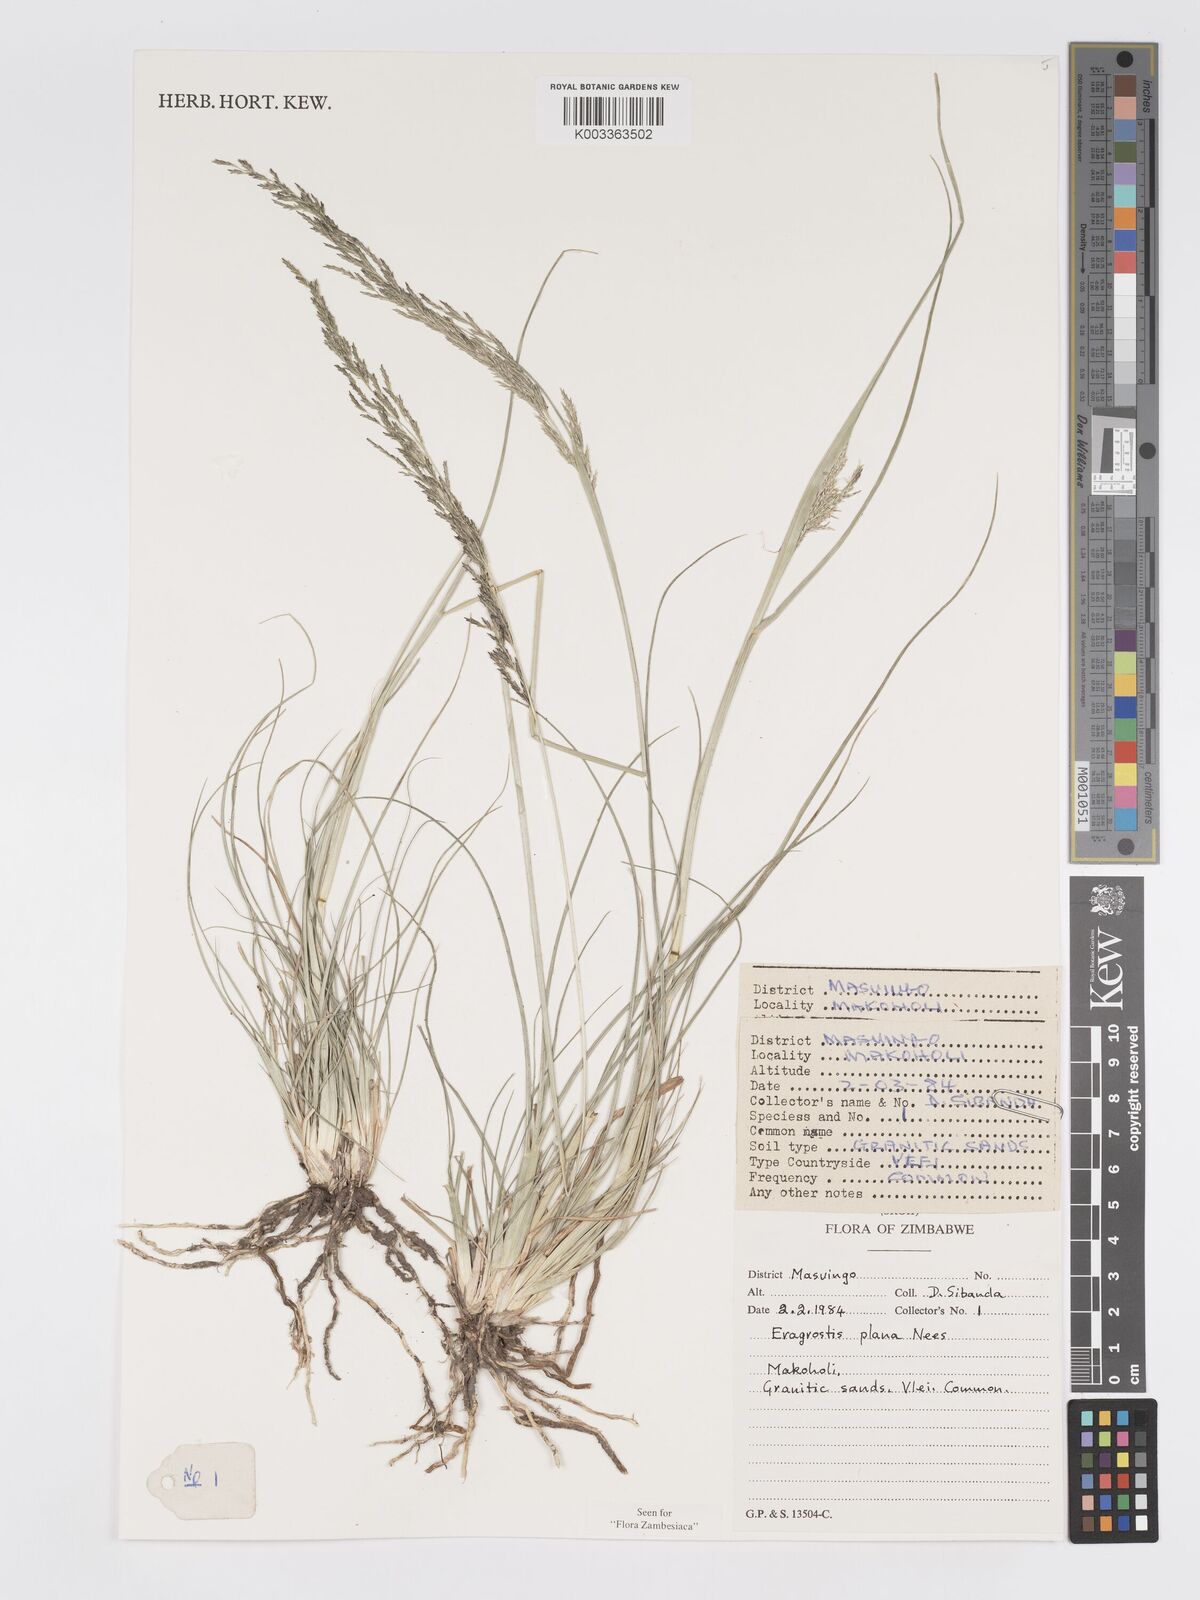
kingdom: Plantae
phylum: Tracheophyta
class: Liliopsida
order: Poales
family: Poaceae
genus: Eragrostis
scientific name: Eragrostis plana
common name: South african lovegrass
